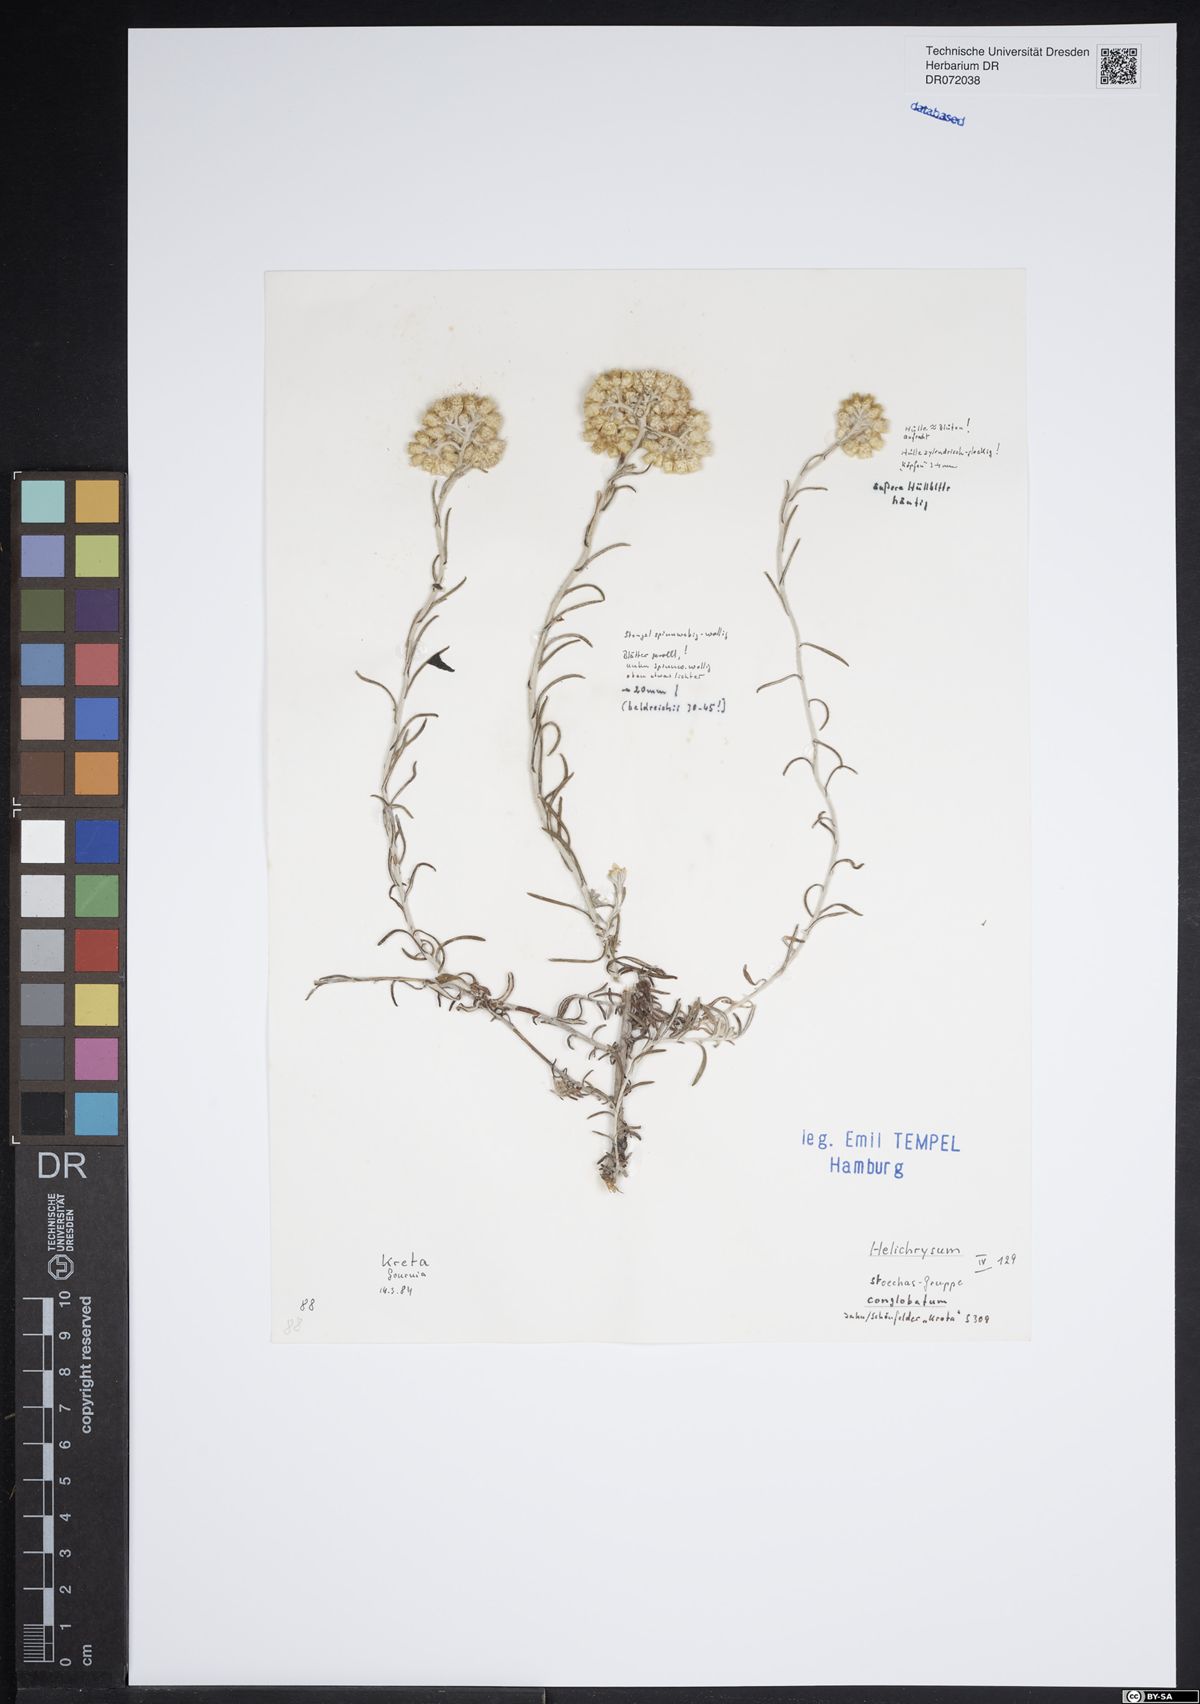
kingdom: Plantae
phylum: Tracheophyta
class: Magnoliopsida
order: Asterales
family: Asteraceae
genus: Helichrysum
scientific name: Helichrysum stoechas
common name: Goldilocks
